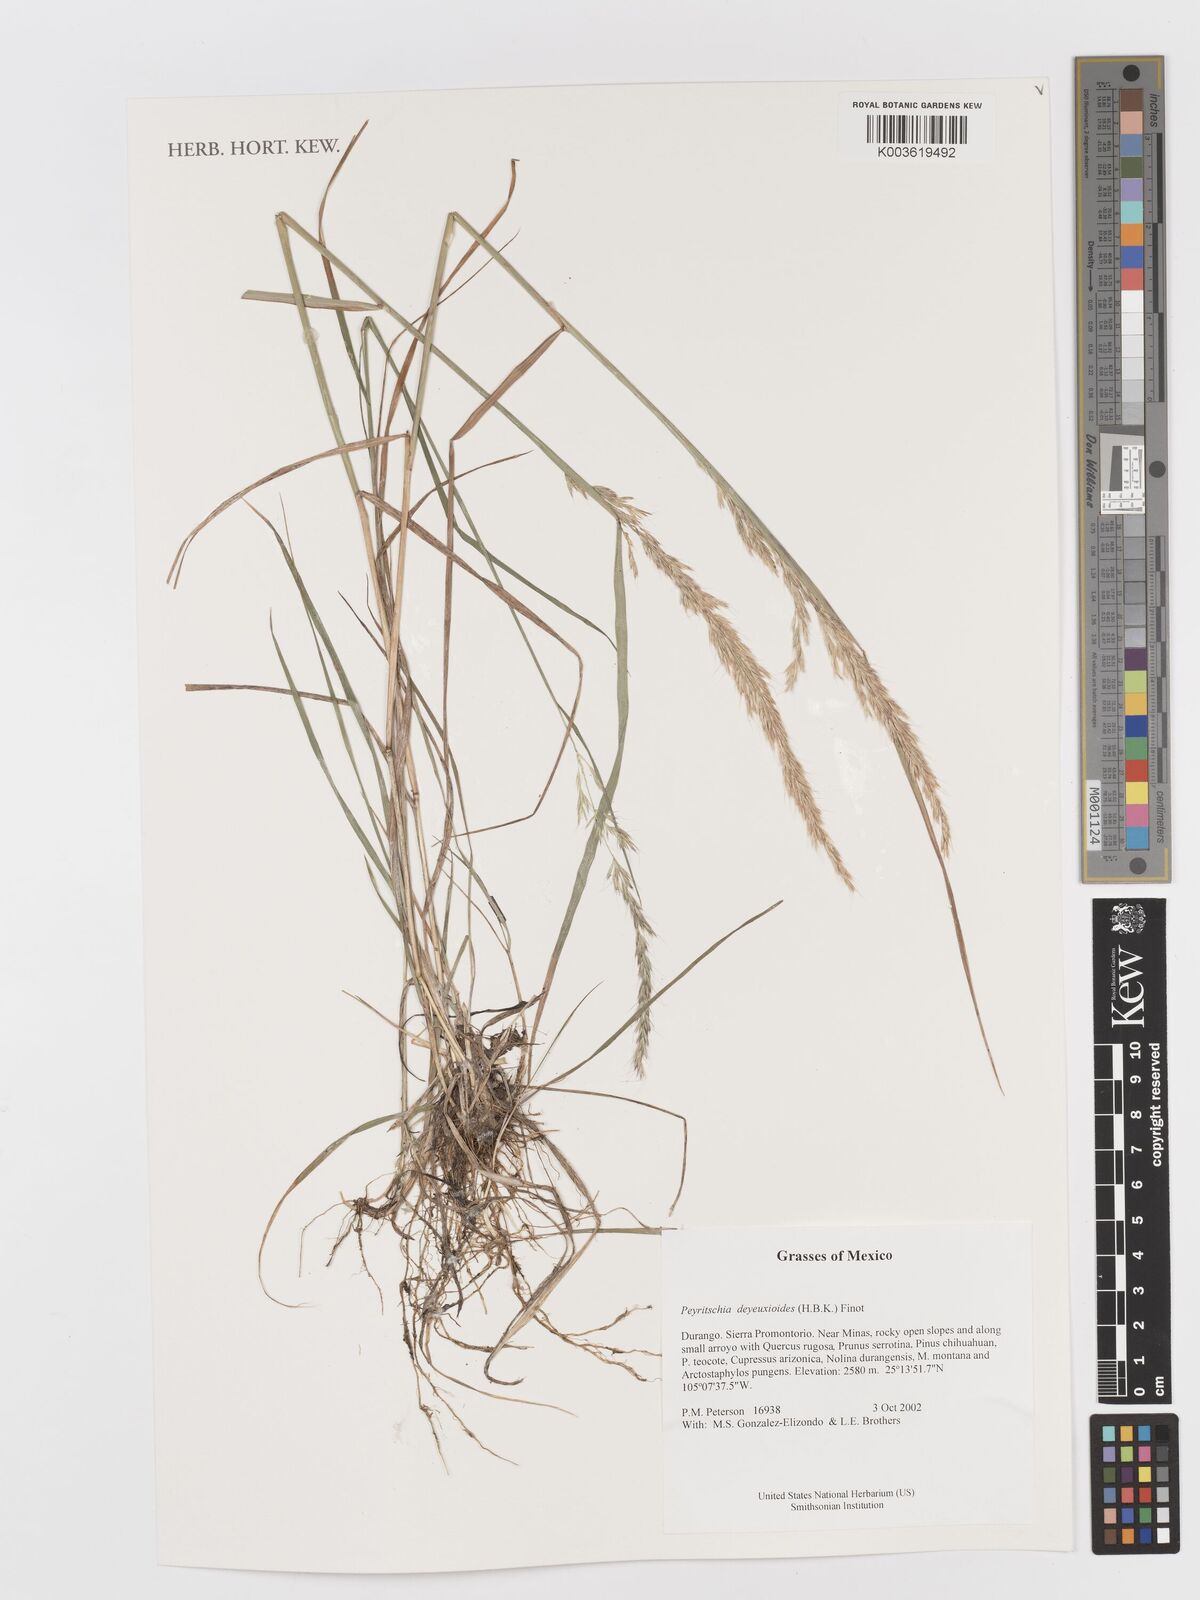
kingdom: Plantae
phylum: Tracheophyta
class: Liliopsida
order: Poales
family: Poaceae
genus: Peyritschia
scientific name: Peyritschia deyeuxioides
